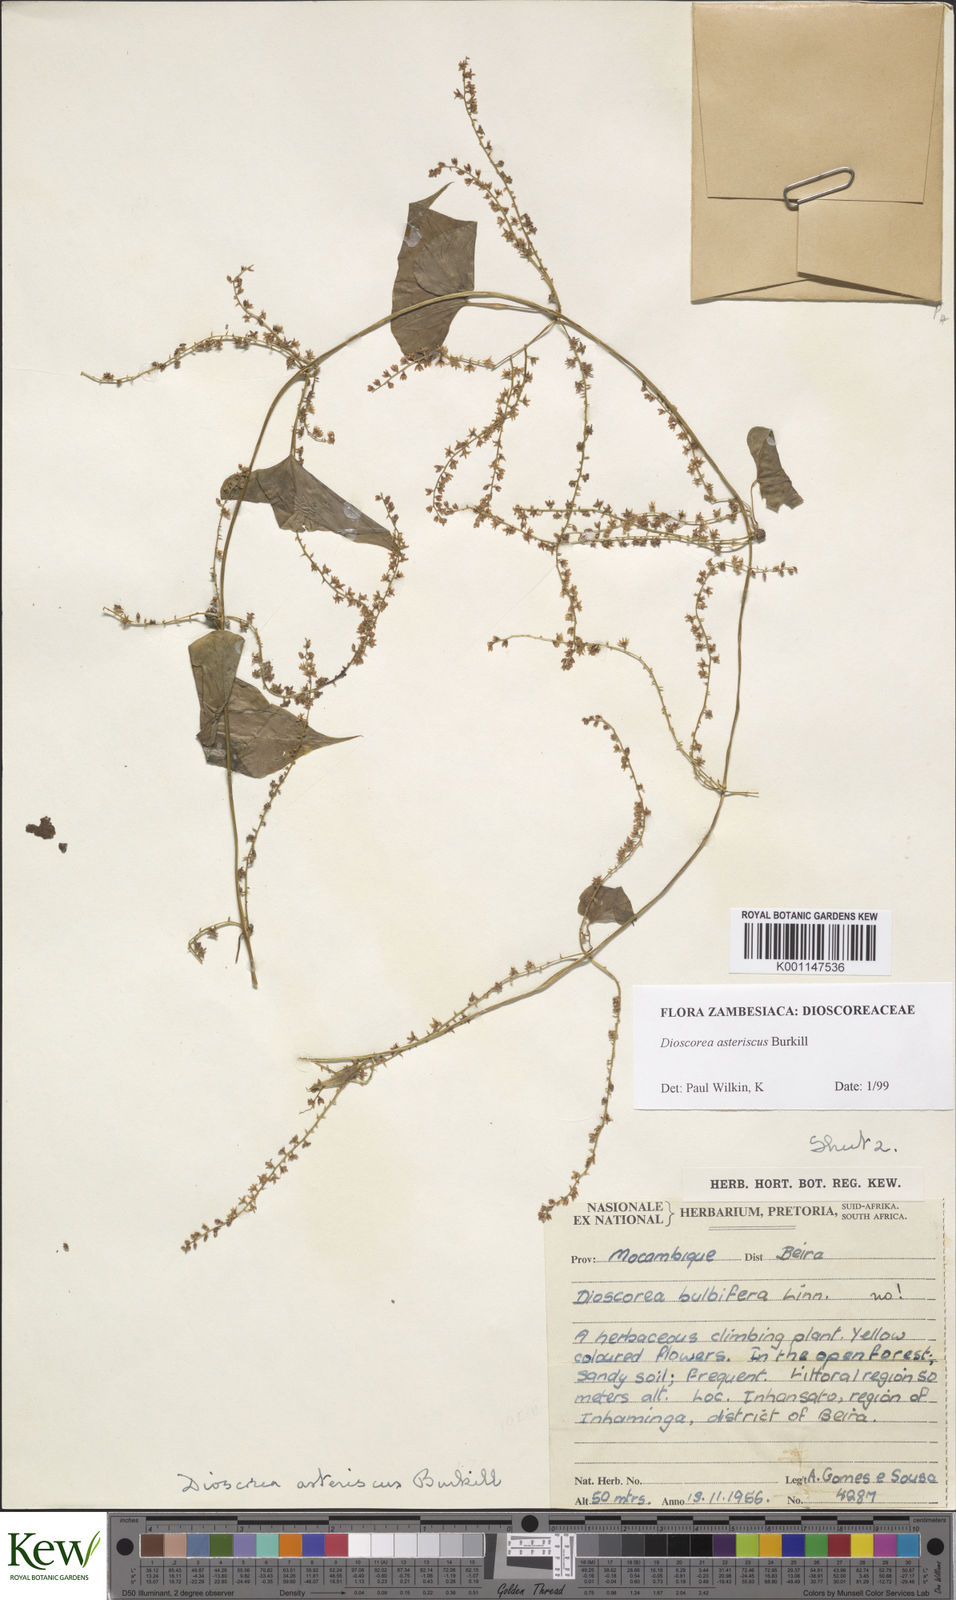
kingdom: Plantae
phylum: Tracheophyta
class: Liliopsida
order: Dioscoreales
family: Dioscoreaceae
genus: Dioscorea
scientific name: Dioscorea asteriscus
